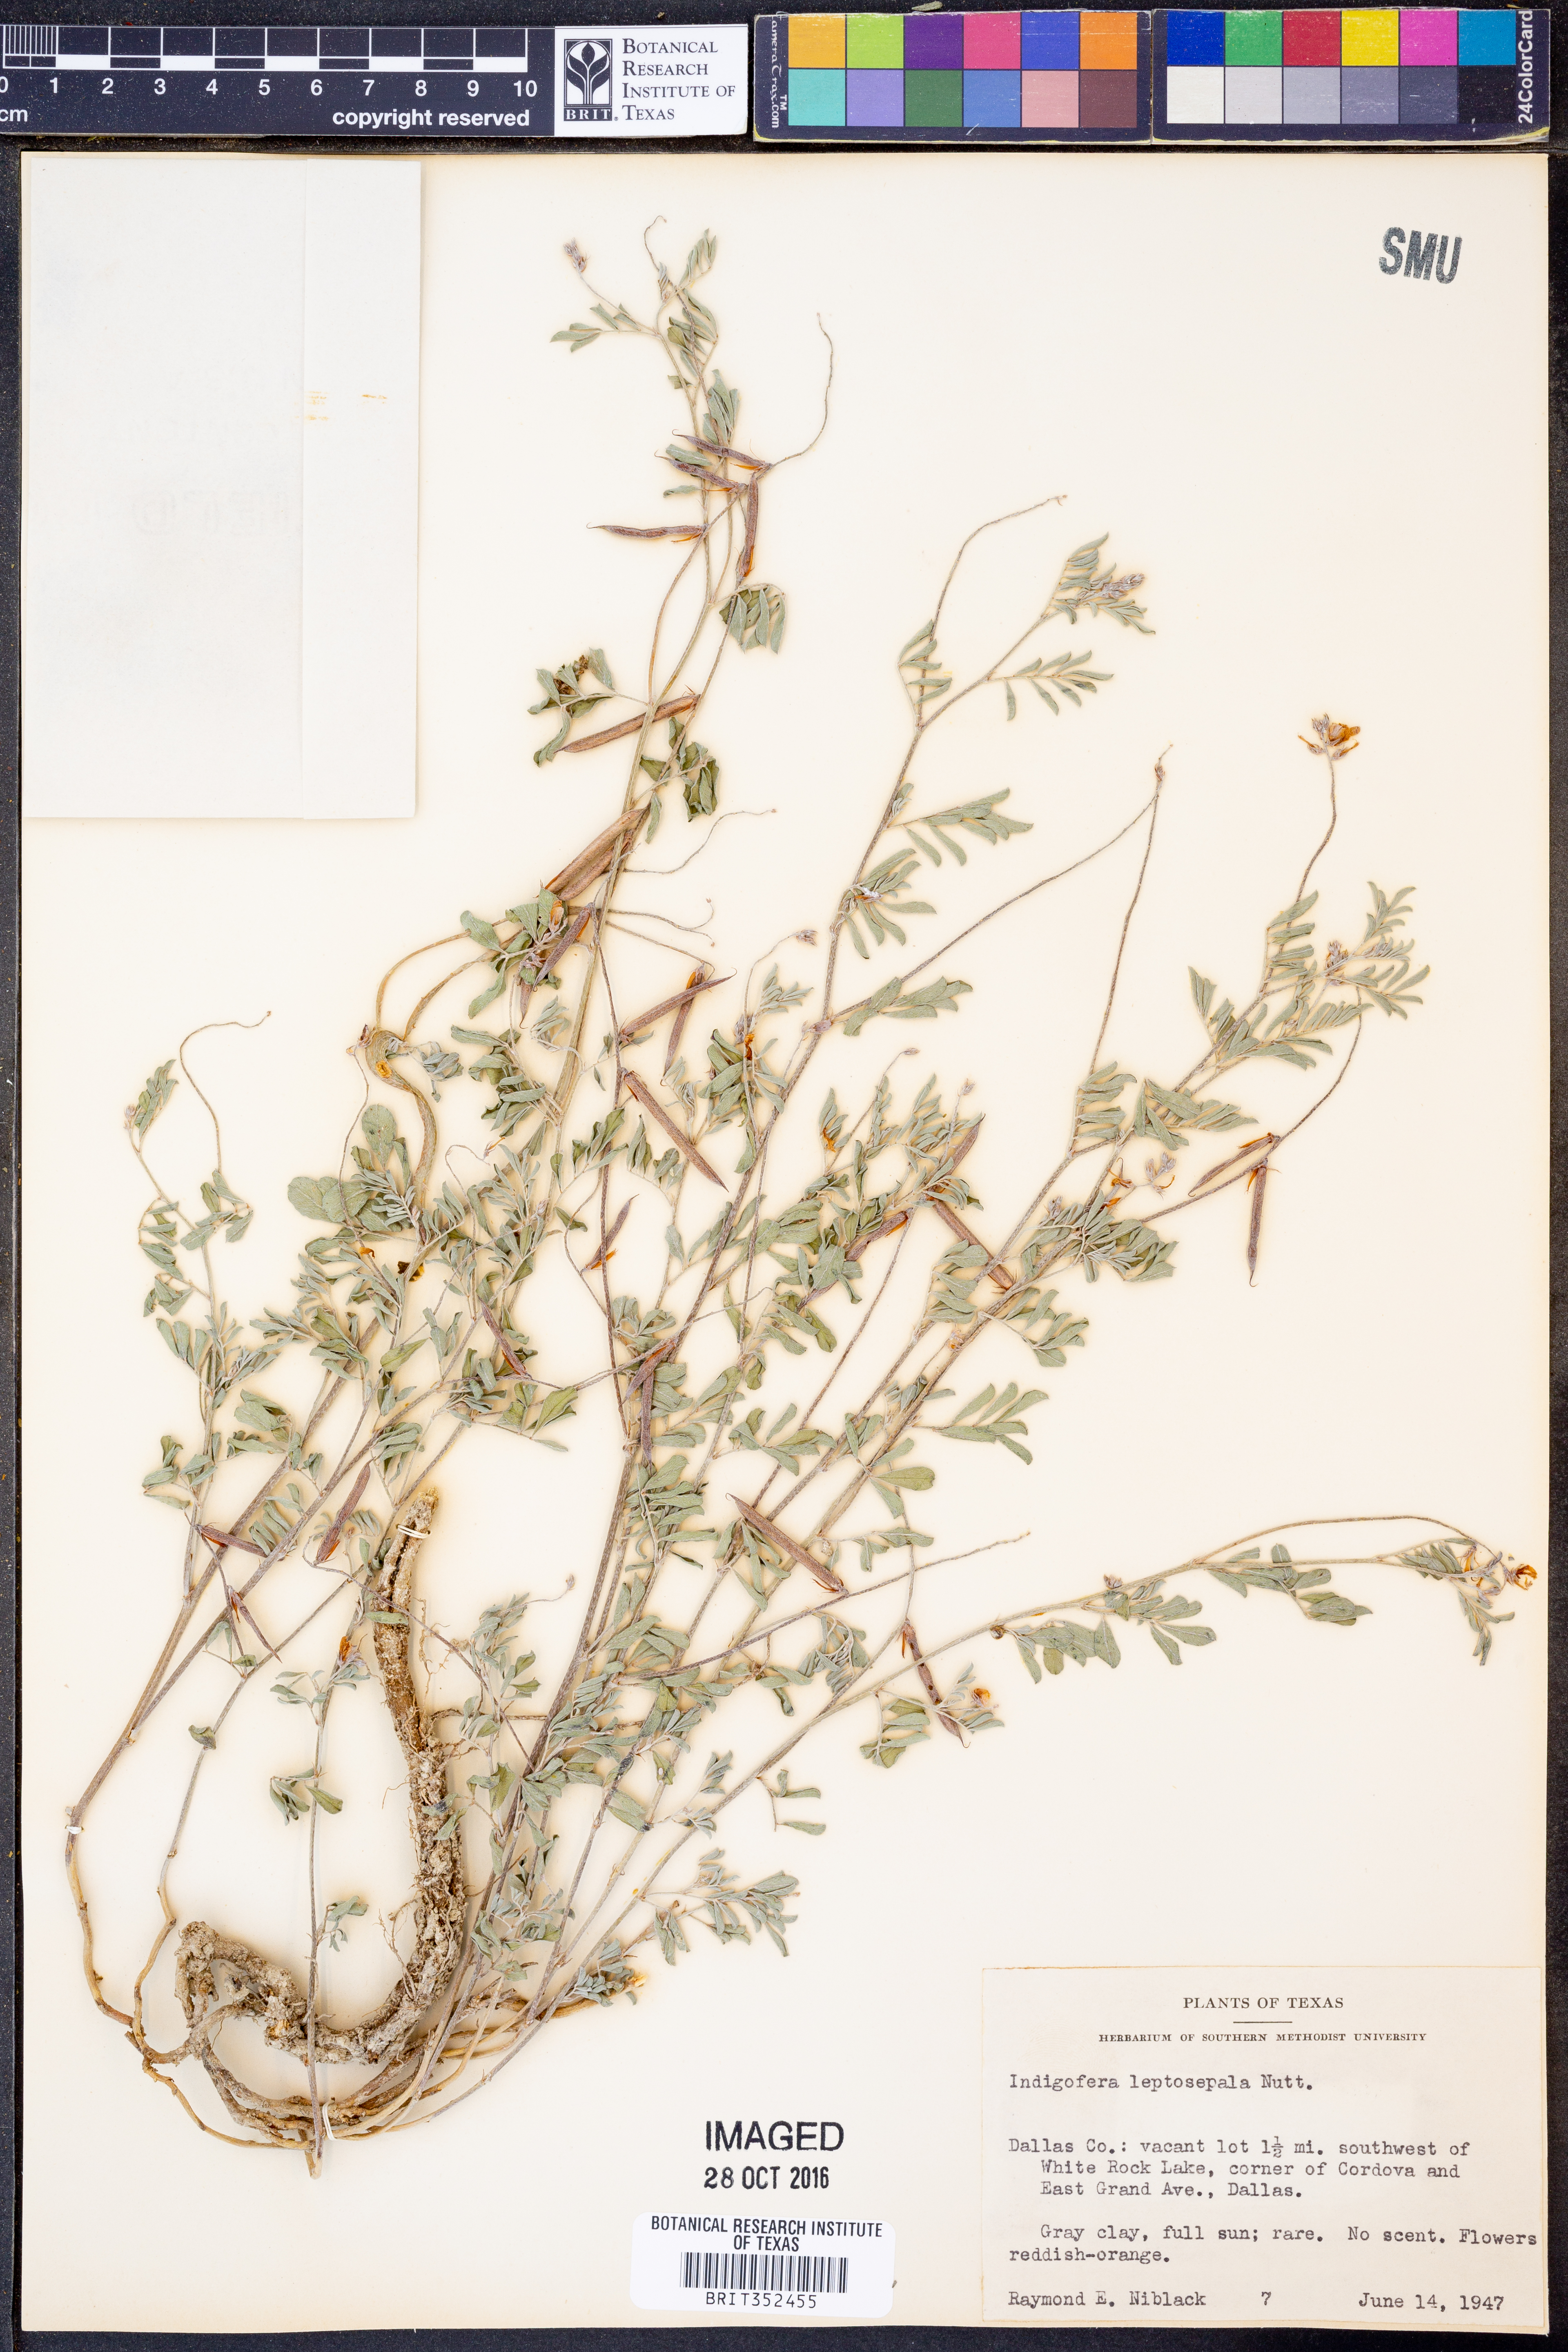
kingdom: Plantae
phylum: Tracheophyta
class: Magnoliopsida
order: Fabales
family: Fabaceae
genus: Indigofera
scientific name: Indigofera argutidens
